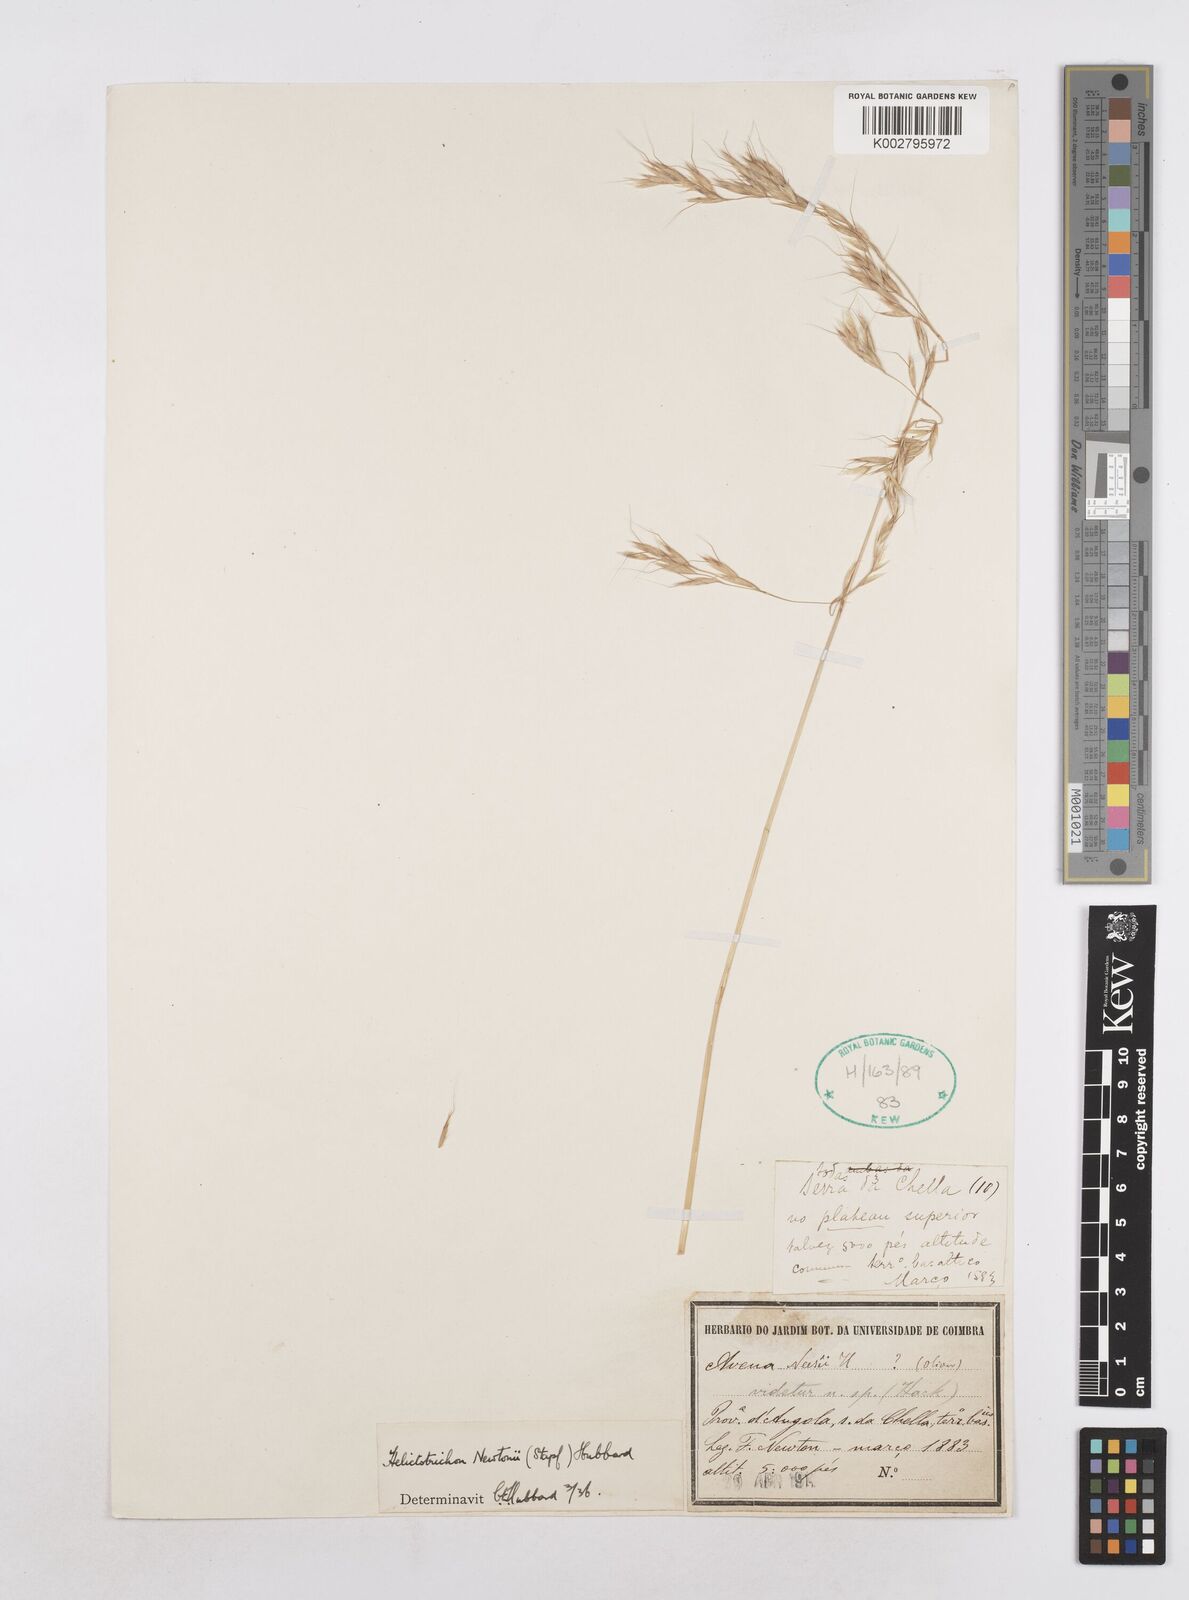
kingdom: Plantae
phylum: Tracheophyta
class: Liliopsida
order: Poales
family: Poaceae
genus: Trisetopsis
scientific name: Trisetopsis newtonii
